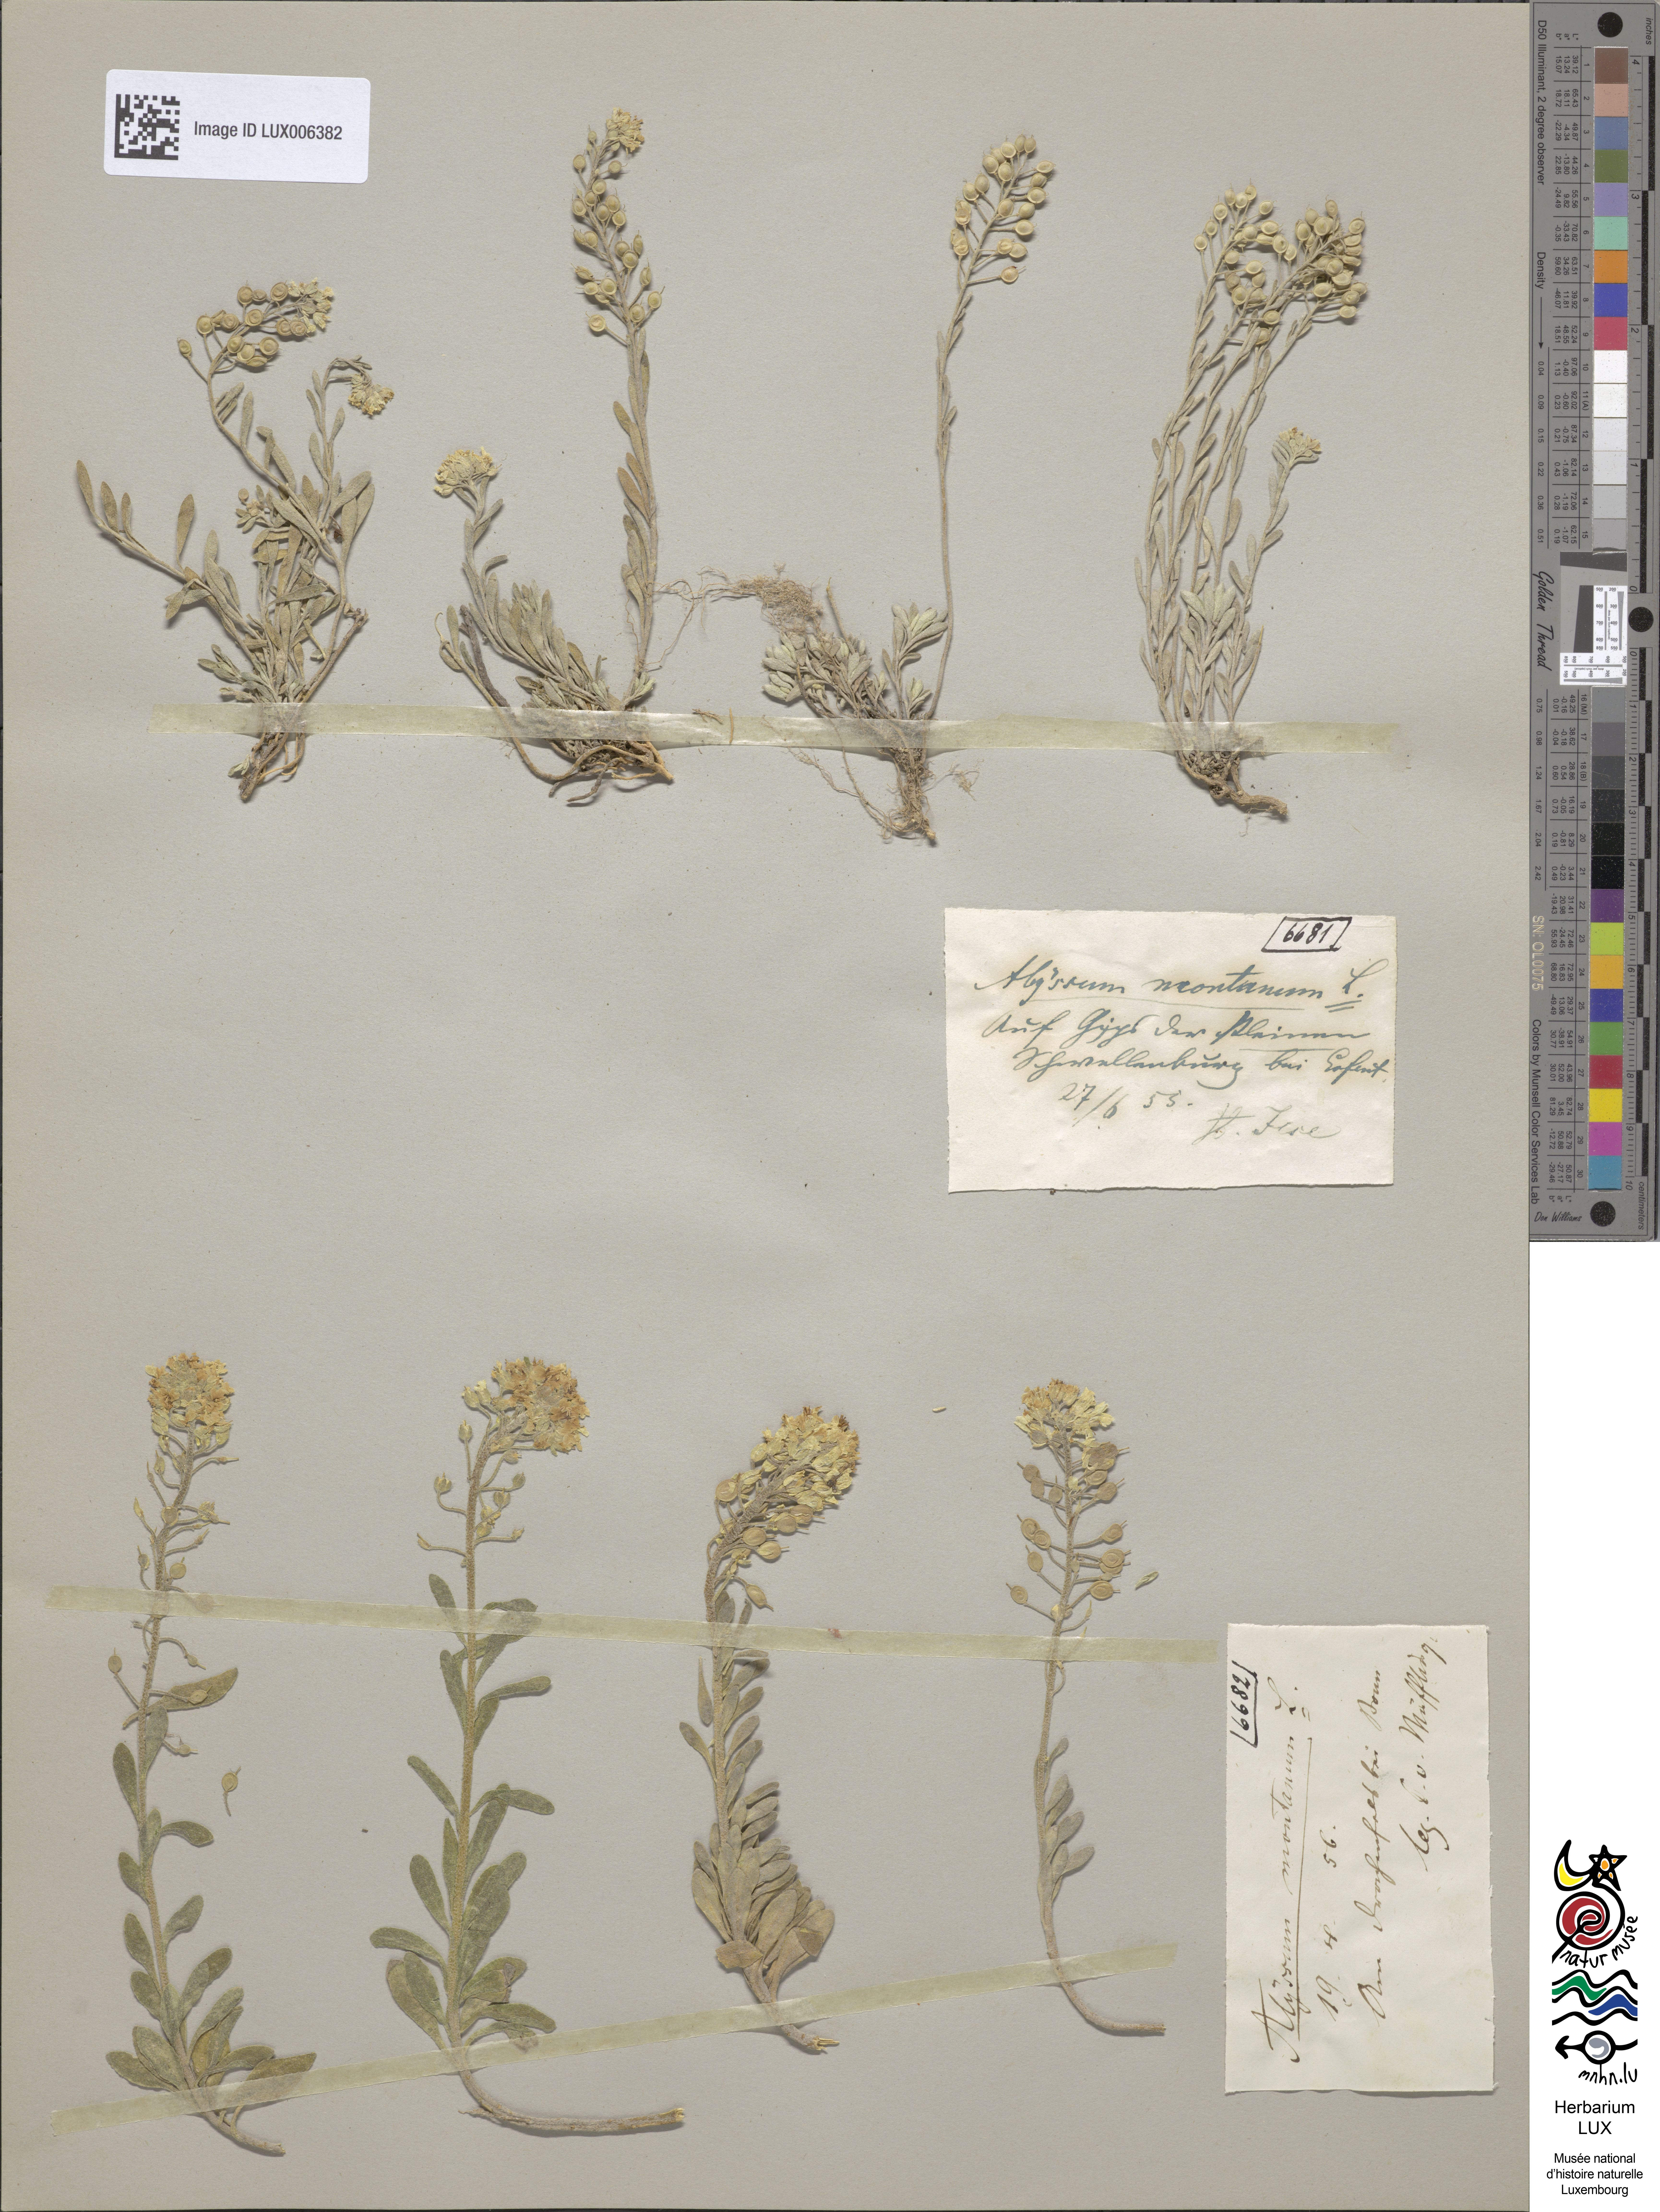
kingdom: Plantae
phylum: Tracheophyta
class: Magnoliopsida
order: Brassicales
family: Brassicaceae
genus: Alyssum
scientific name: Alyssum montanum
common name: Mountain alison
